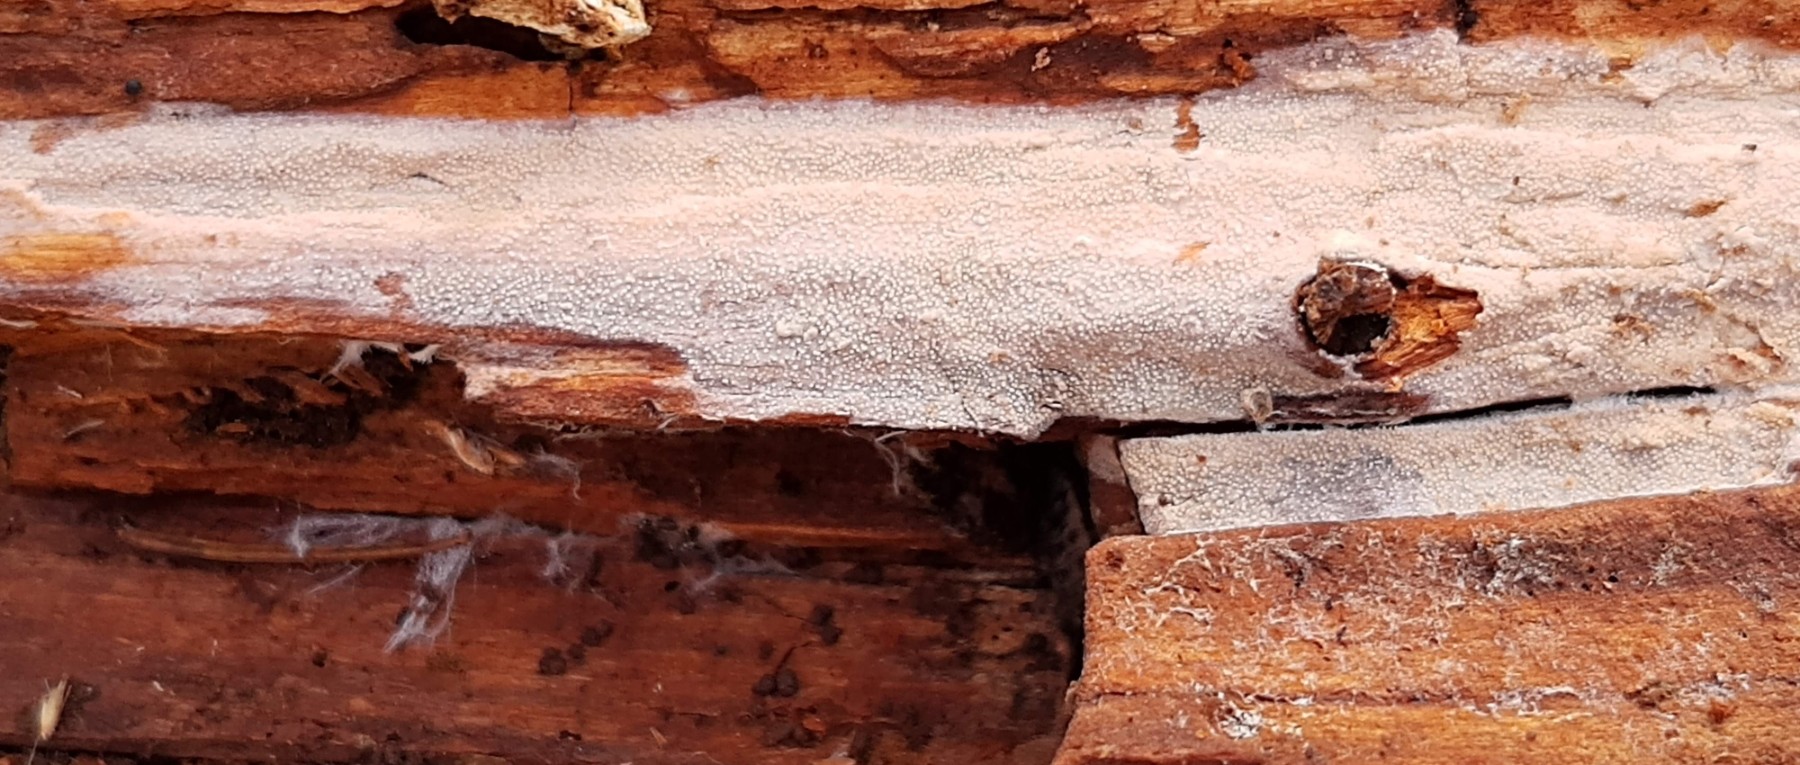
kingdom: Fungi
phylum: Basidiomycota
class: Agaricomycetes
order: Hymenochaetales
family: Rickenellaceae
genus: Resinicium
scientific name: Resinicium bicolor
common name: almindelig vokstand
